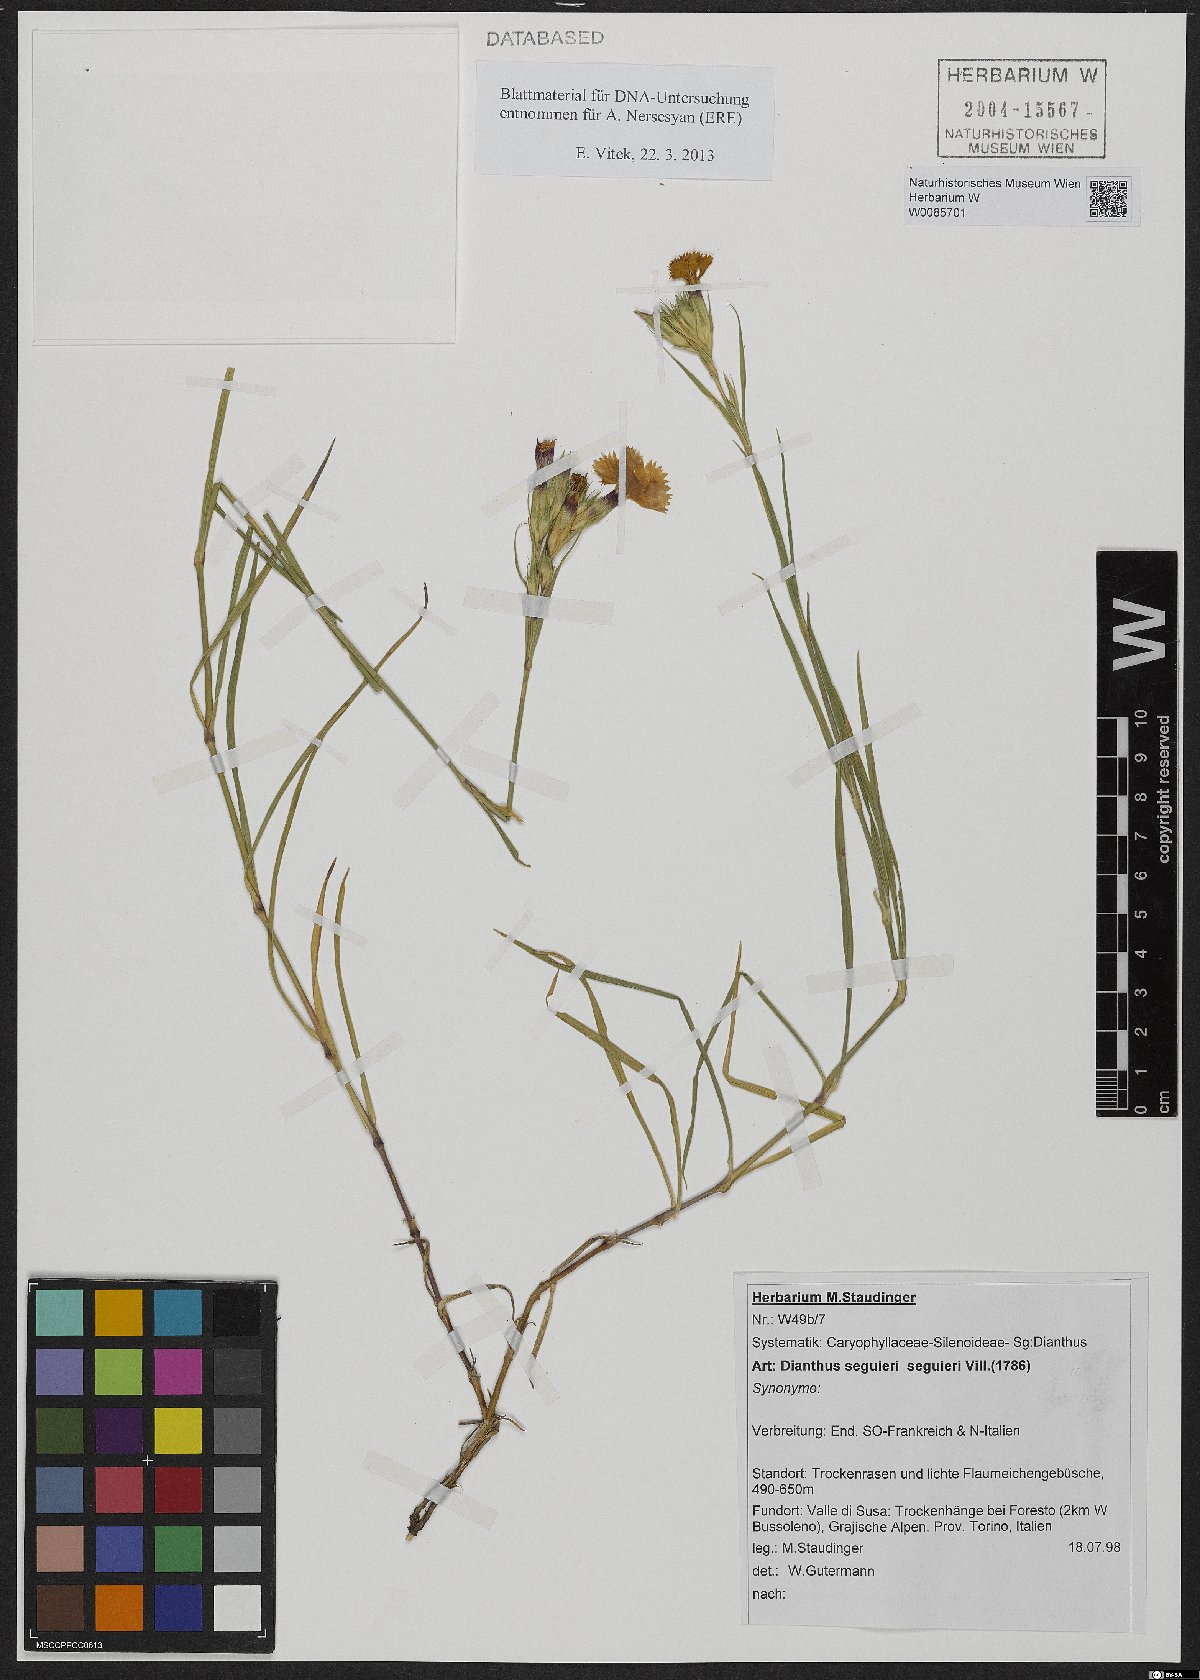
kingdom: Plantae
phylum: Tracheophyta
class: Magnoliopsida
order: Caryophyllales
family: Caryophyllaceae
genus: Dianthus
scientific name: Dianthus seguieri
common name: Ragged pink
